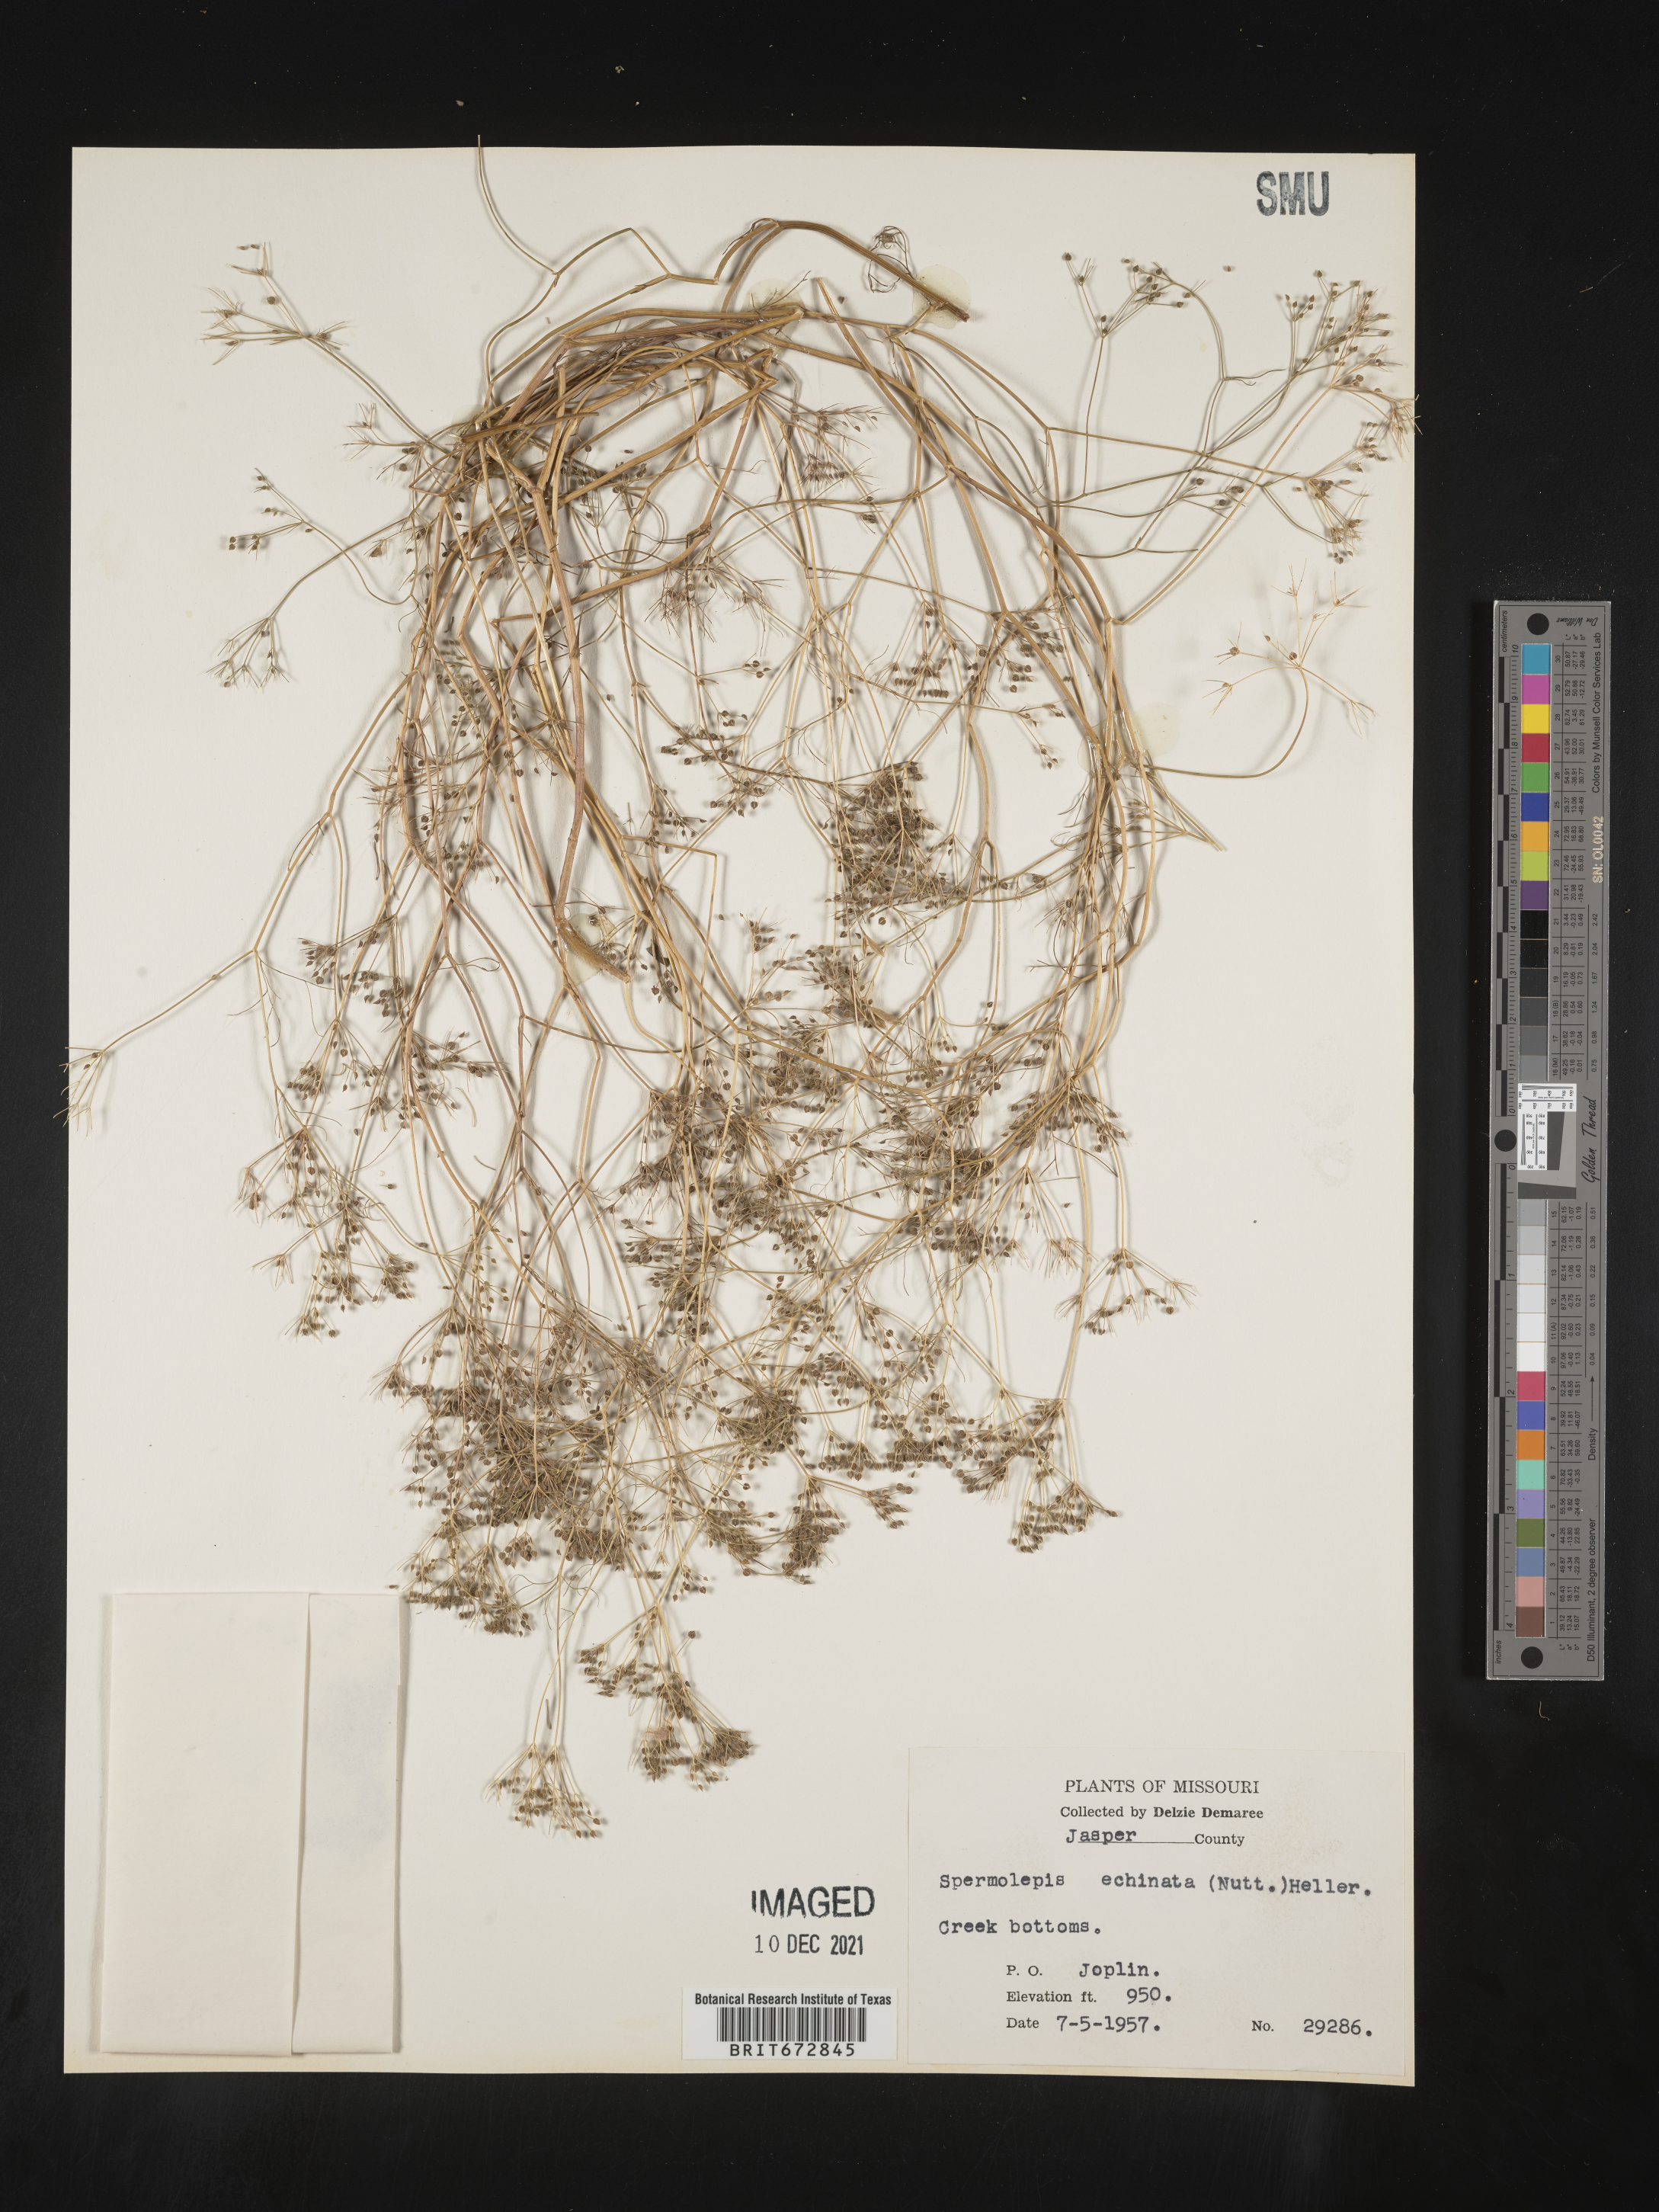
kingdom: Plantae
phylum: Tracheophyta
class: Magnoliopsida
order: Apiales
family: Apiaceae
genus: Spermolepis
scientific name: Spermolepis echinata
